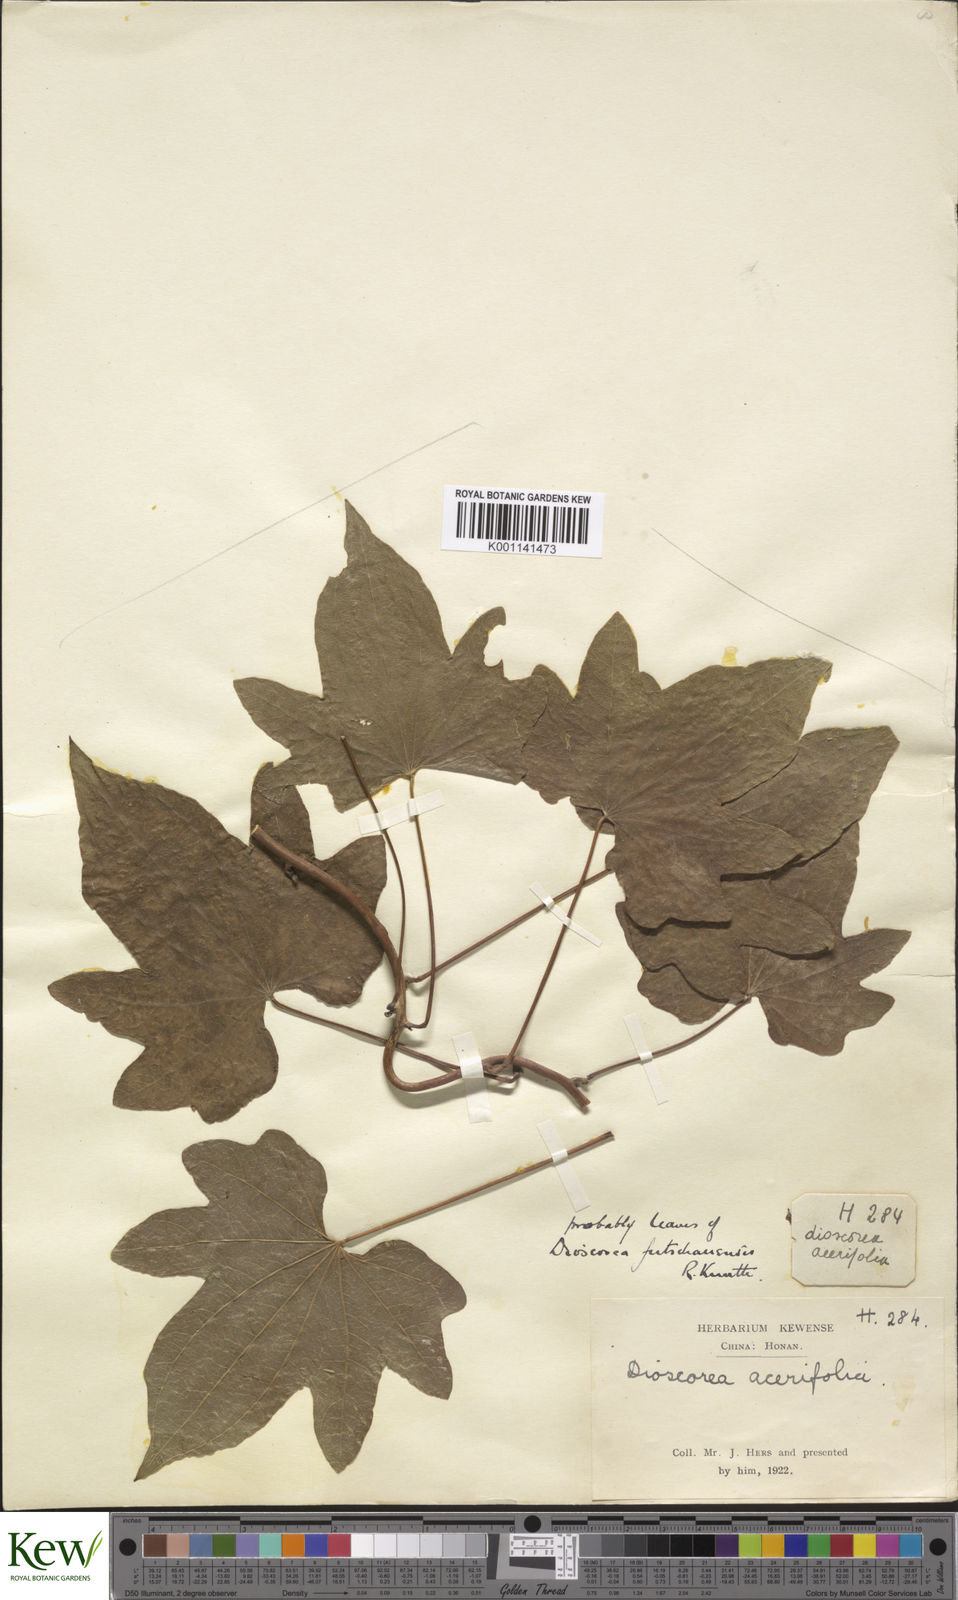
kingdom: Plantae
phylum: Tracheophyta
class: Liliopsida
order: Dioscoreales
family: Dioscoreaceae
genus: Dioscorea
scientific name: Dioscorea futschauensis
